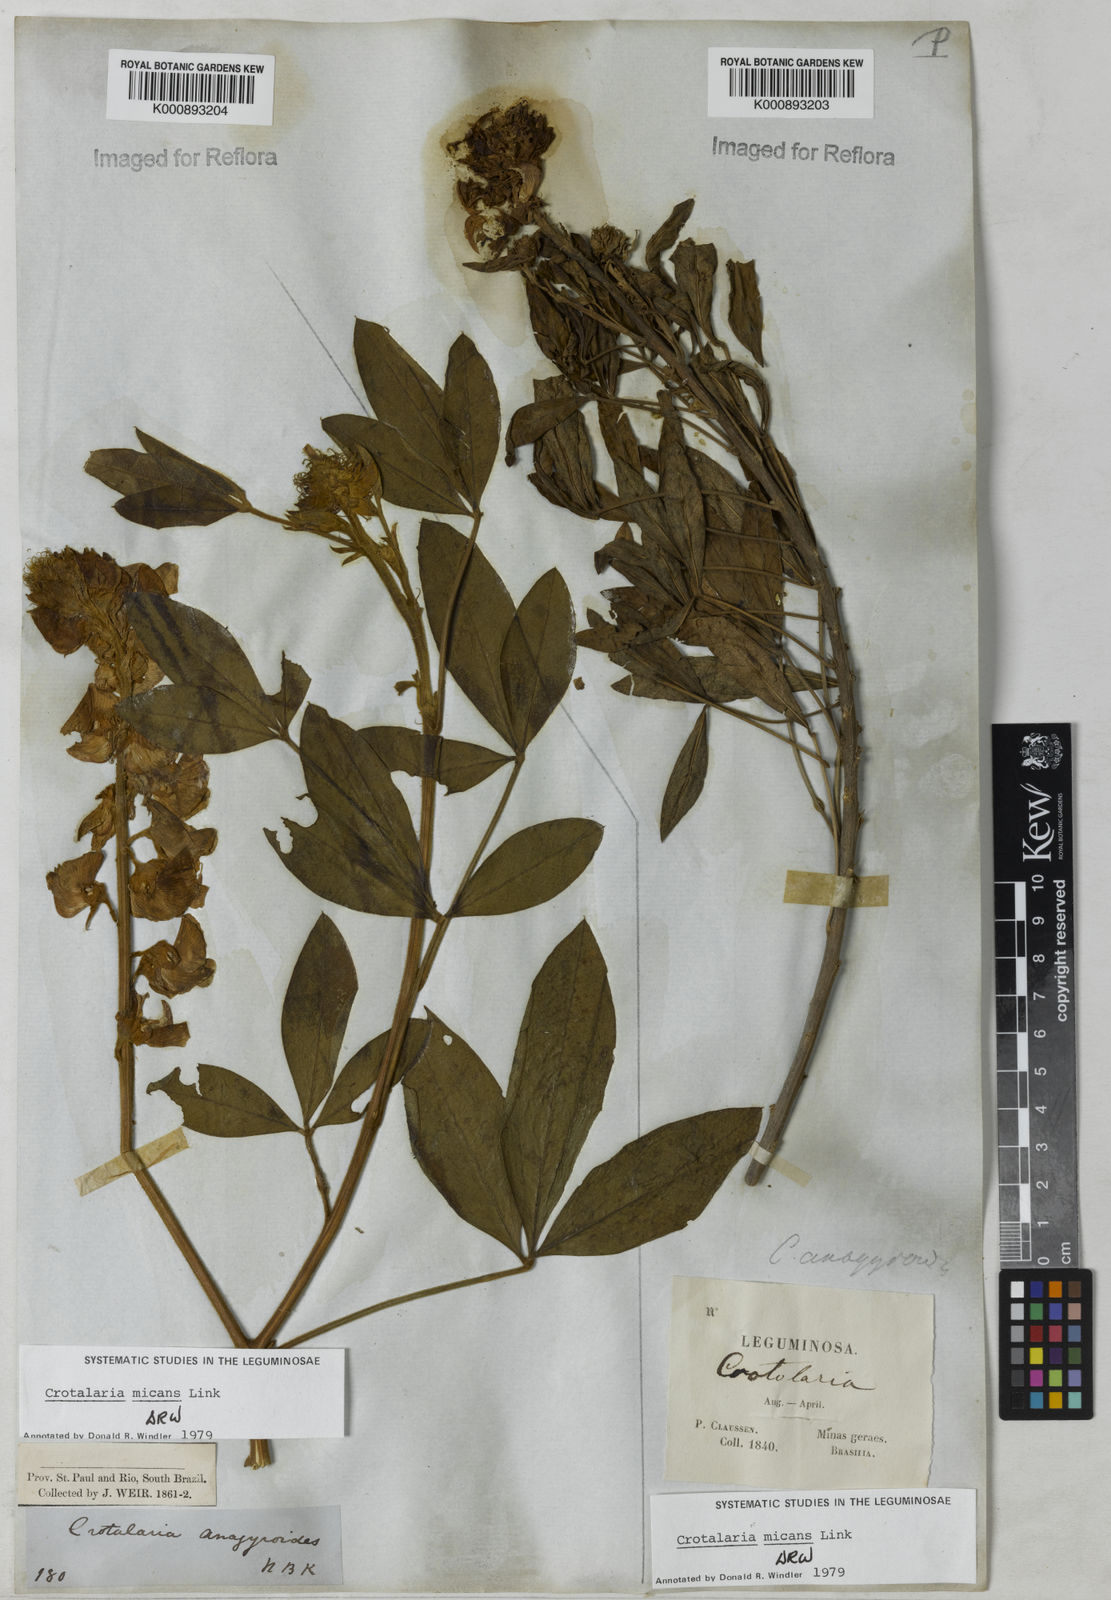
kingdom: Plantae
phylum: Tracheophyta
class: Magnoliopsida
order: Fabales
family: Fabaceae
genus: Crotalaria
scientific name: Crotalaria micans
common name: Caracas rattlebox
